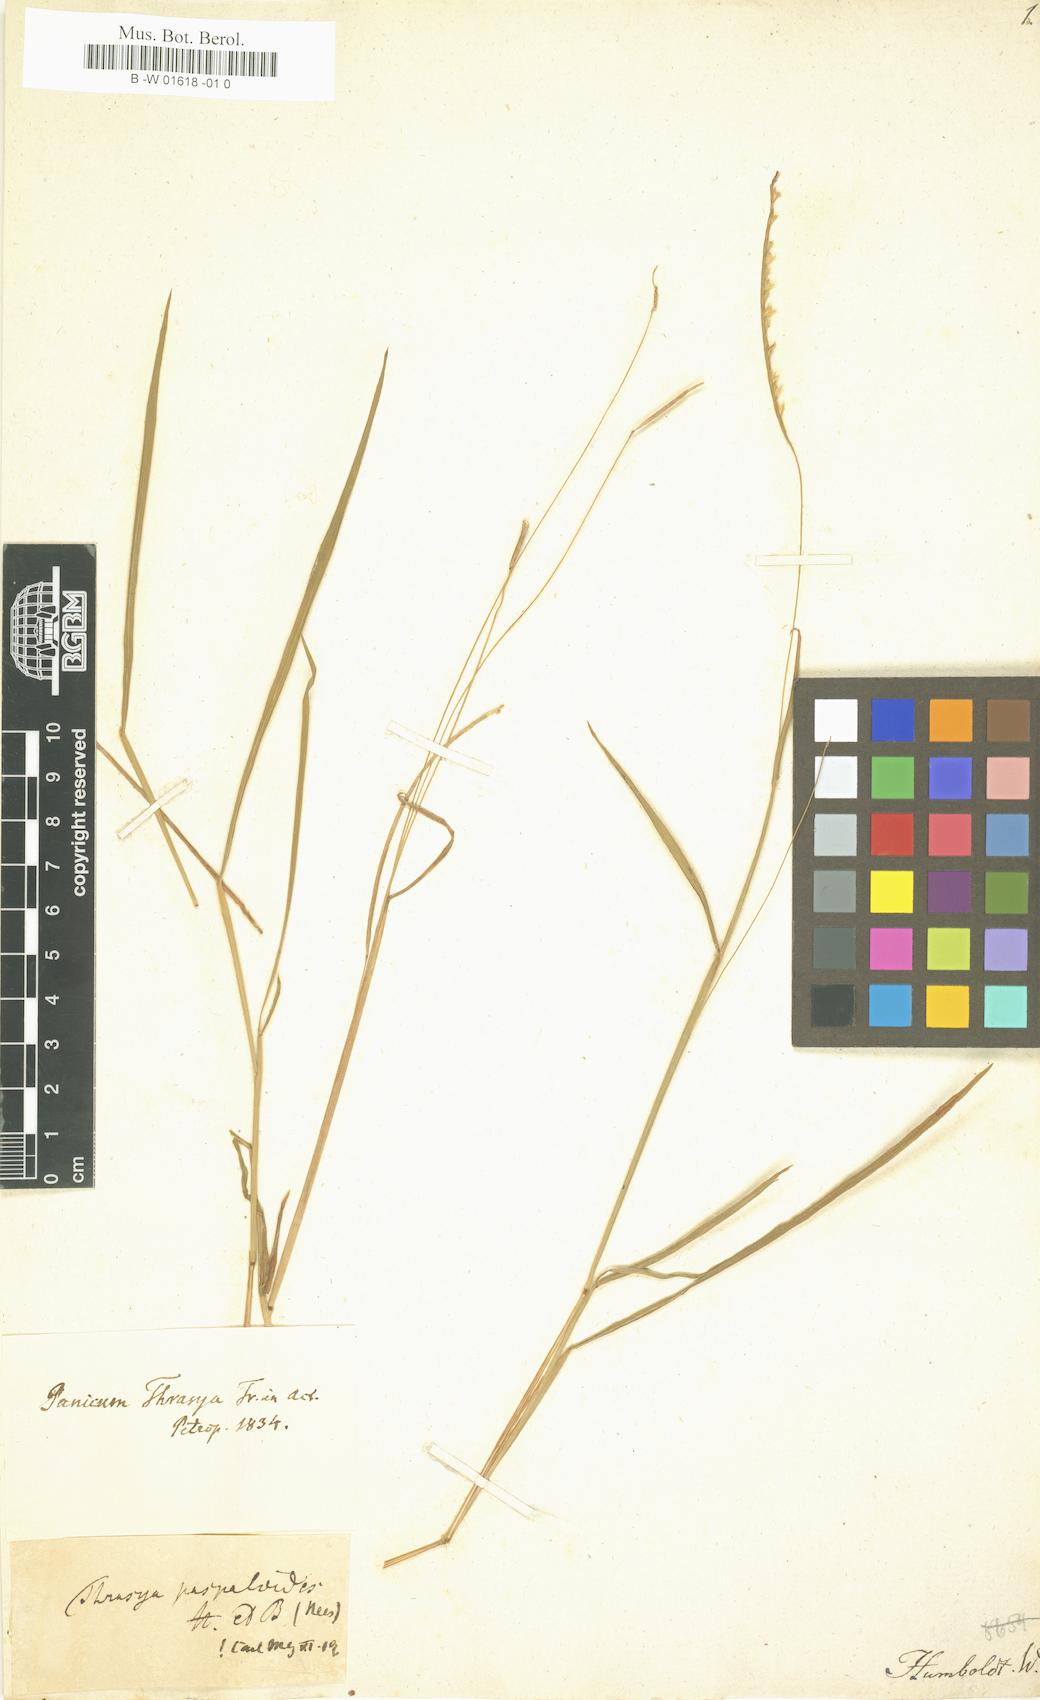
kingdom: Plantae
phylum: Tracheophyta
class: Liliopsida
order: Poales
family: Poaceae
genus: Paspalum
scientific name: Paspalum Thrasya paspaloides
